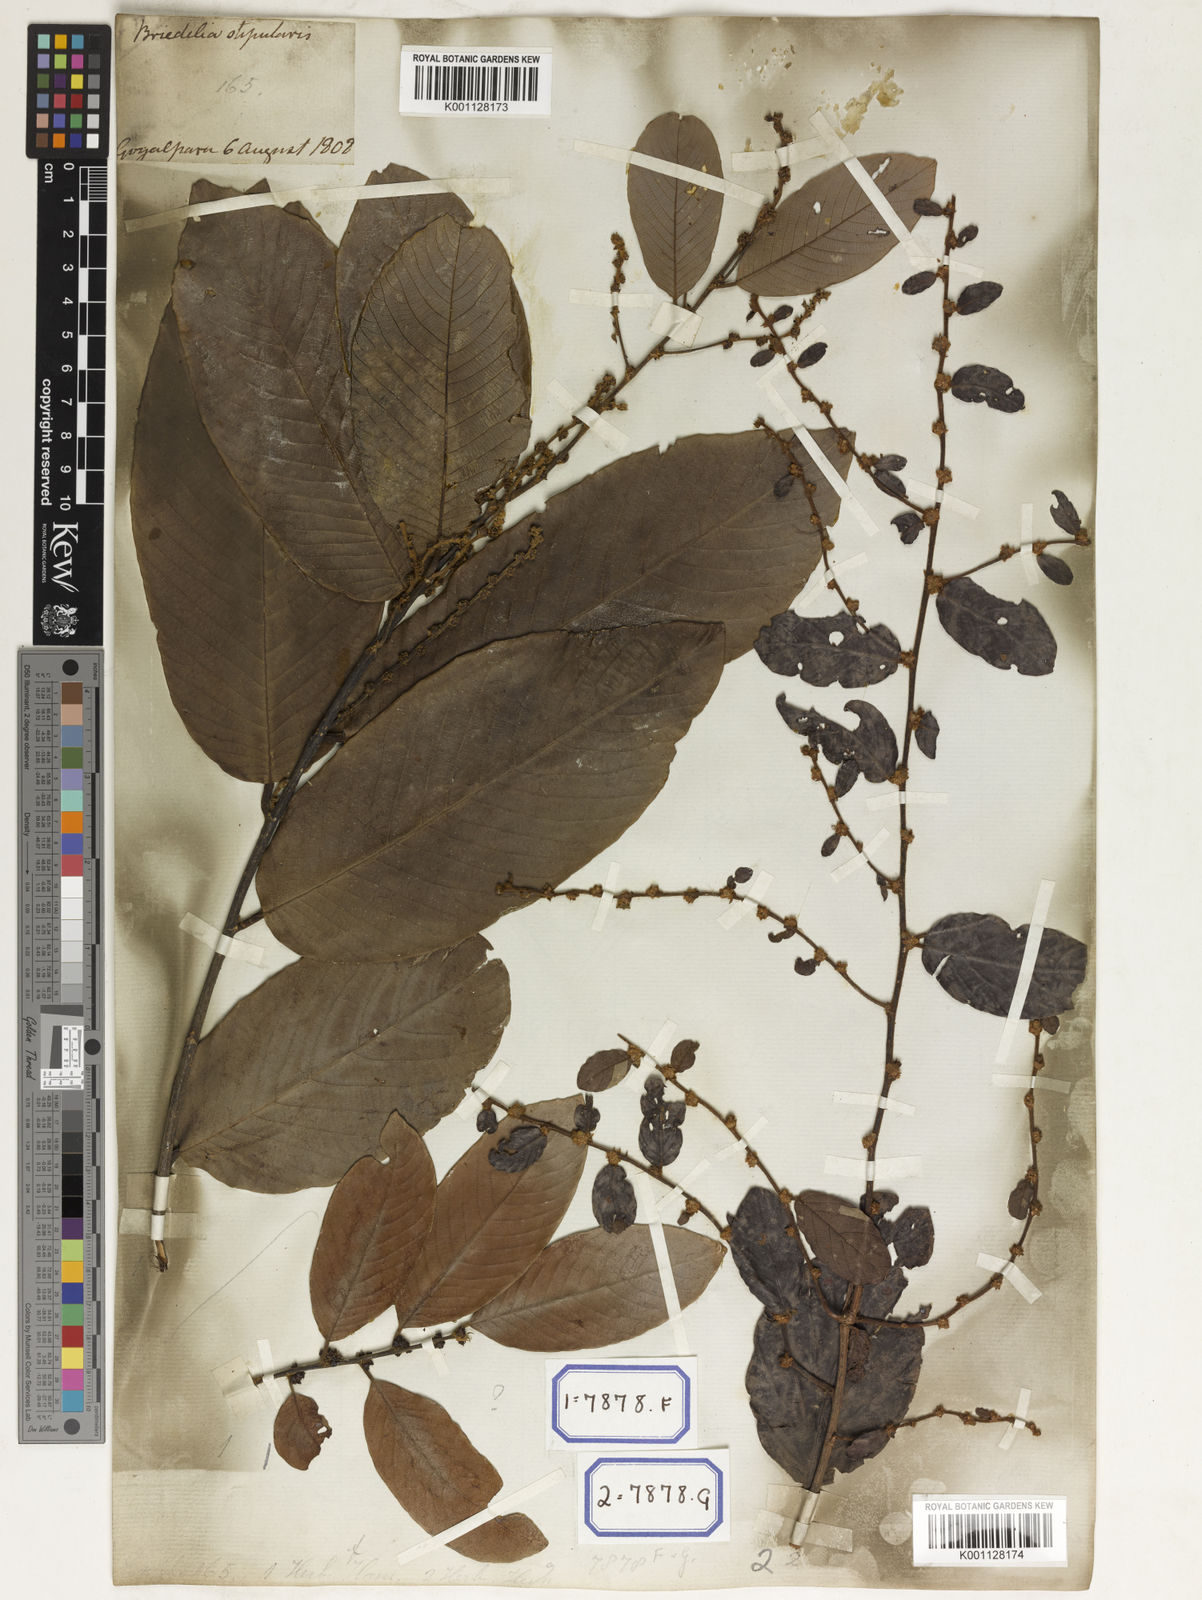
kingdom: Plantae
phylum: Tracheophyta
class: Magnoliopsida
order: Malpighiales
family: Phyllanthaceae
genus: Bridelia
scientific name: Bridelia
